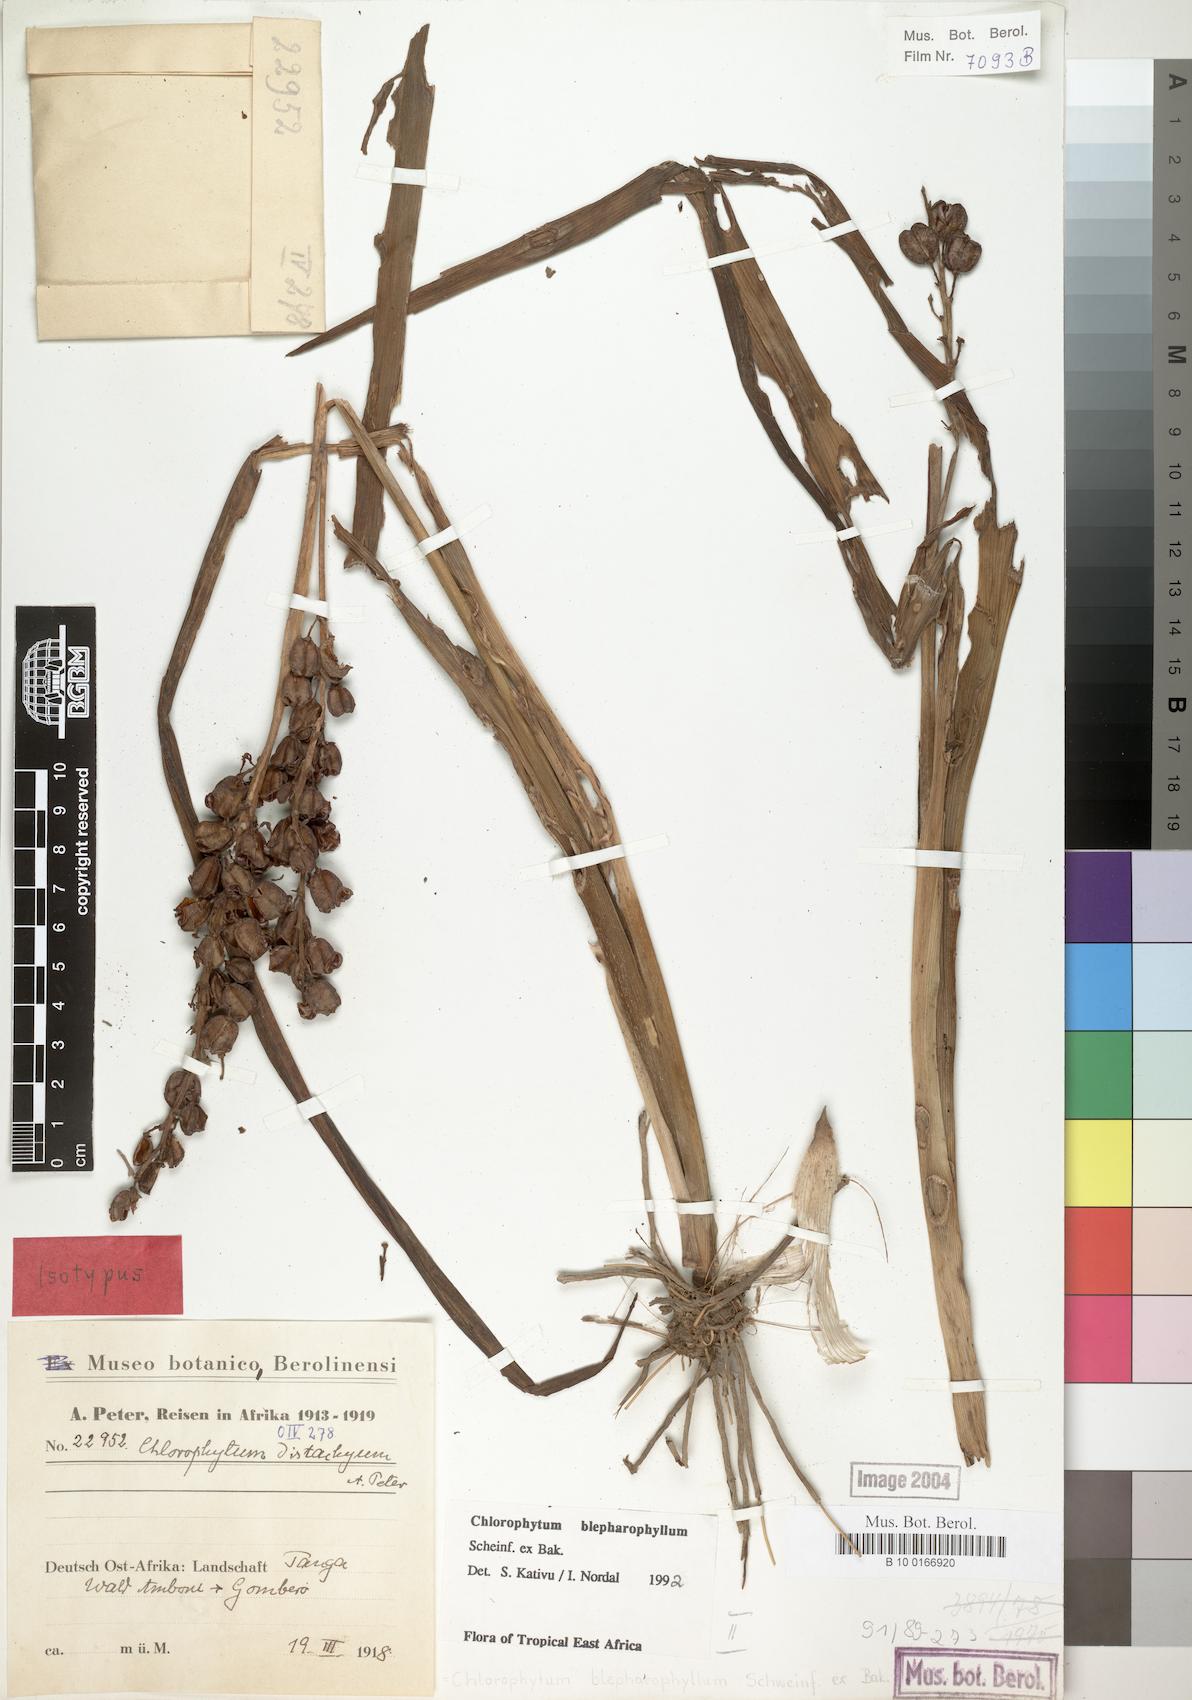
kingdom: Plantae
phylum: Tracheophyta
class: Liliopsida
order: Asparagales
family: Asparagaceae
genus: Chlorophytum
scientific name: Chlorophytum blepharophyllum
